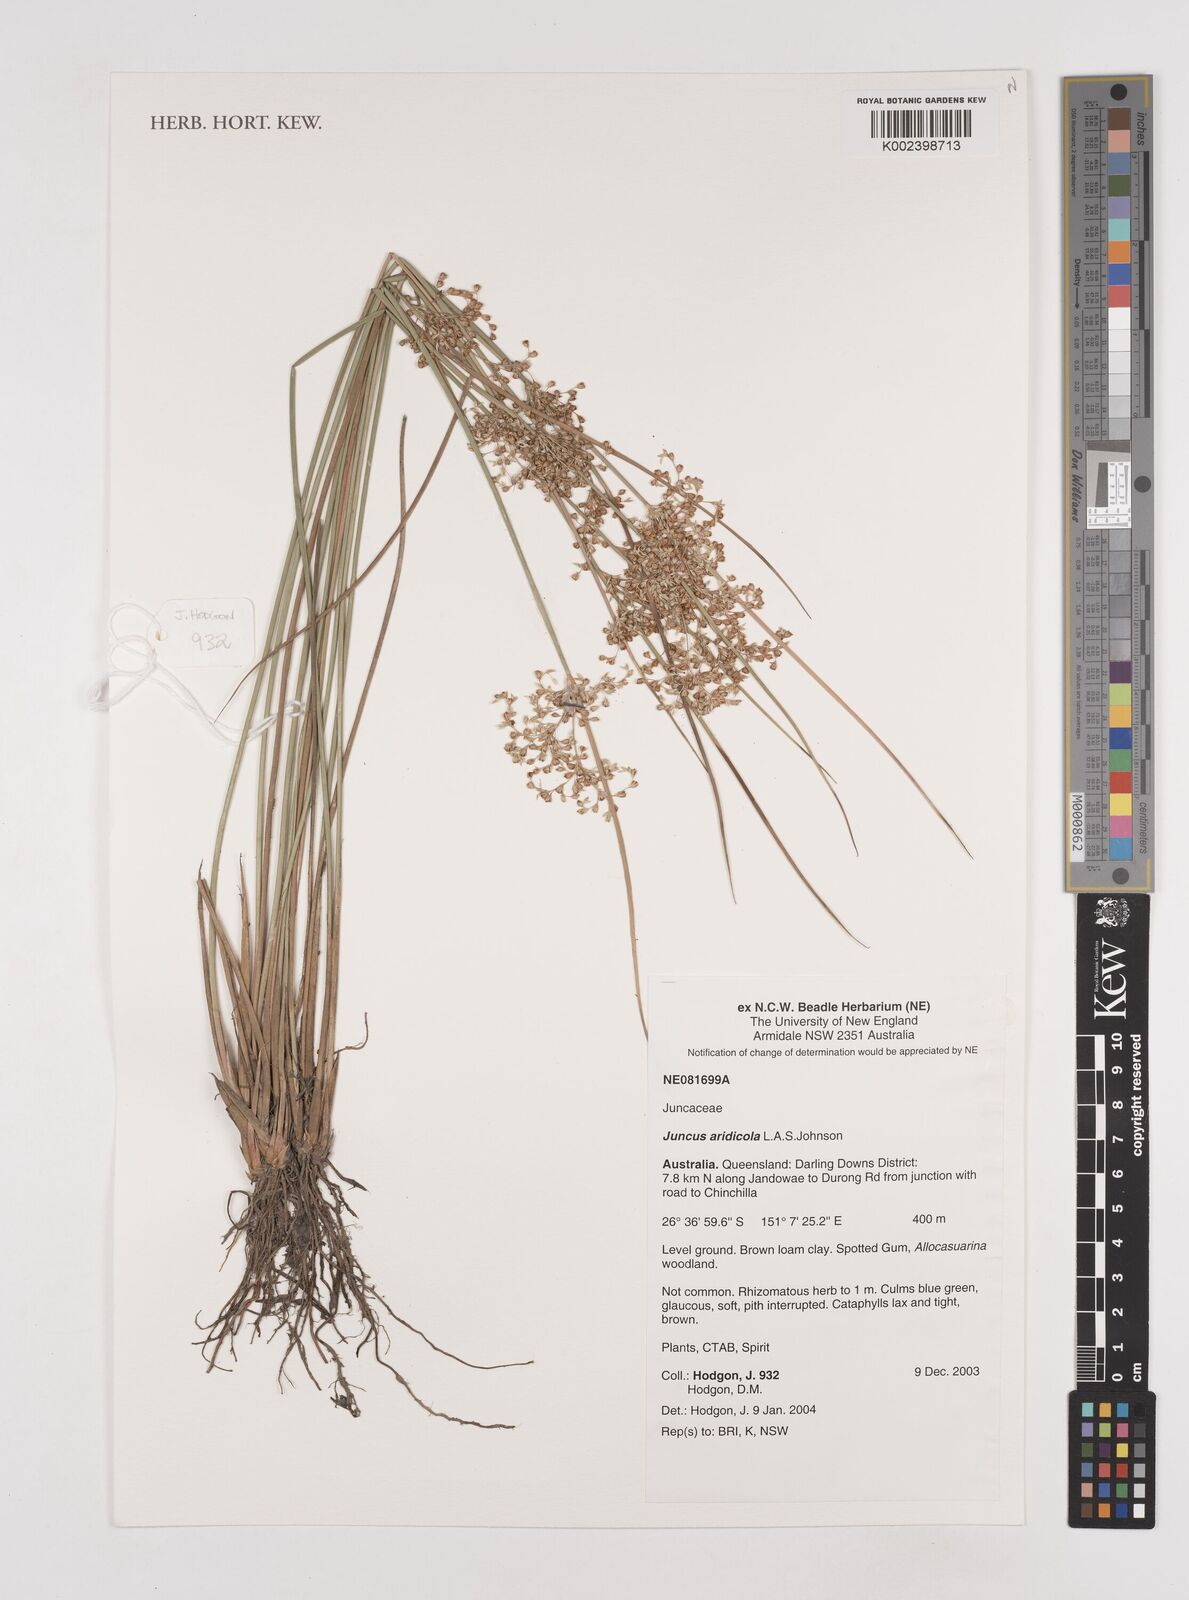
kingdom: Plantae
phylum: Tracheophyta
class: Liliopsida
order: Poales
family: Juncaceae
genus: Juncus
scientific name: Juncus aridicola
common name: Tussock rush
